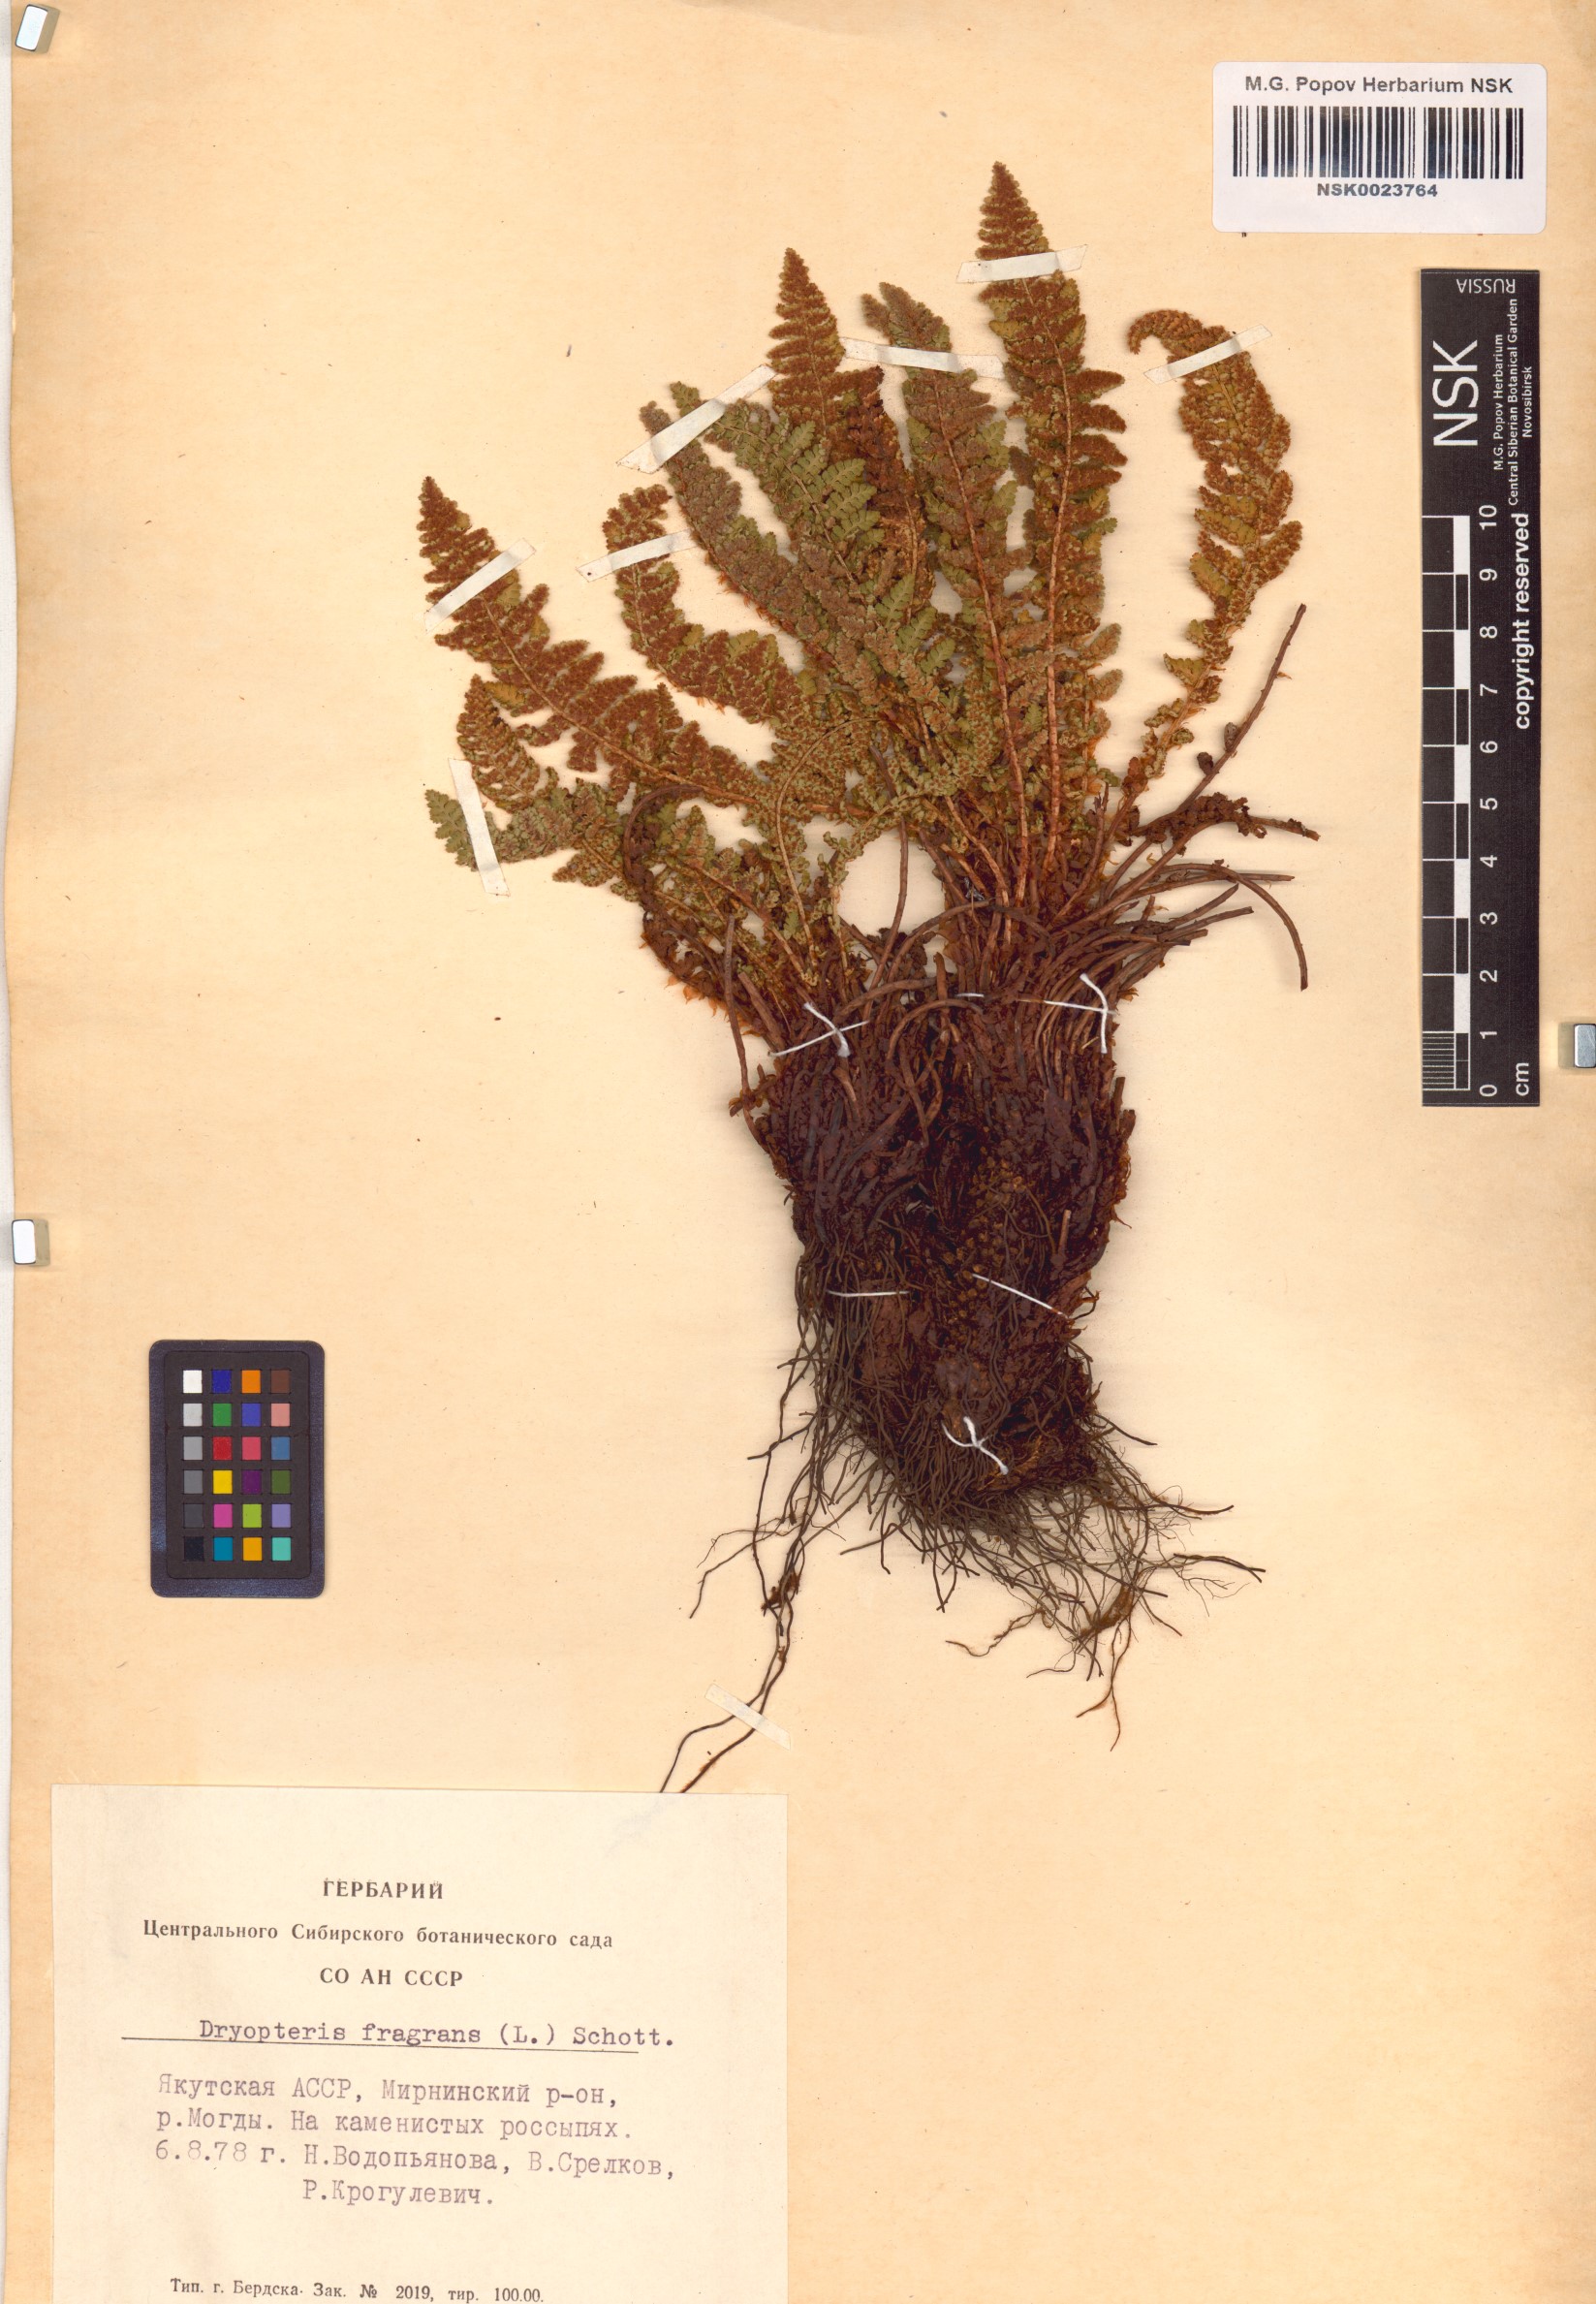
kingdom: Plantae
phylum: Tracheophyta
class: Polypodiopsida
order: Polypodiales
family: Dryopteridaceae
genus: Dryopteris
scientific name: Dryopteris fragrans
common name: Fragrant wood fern
